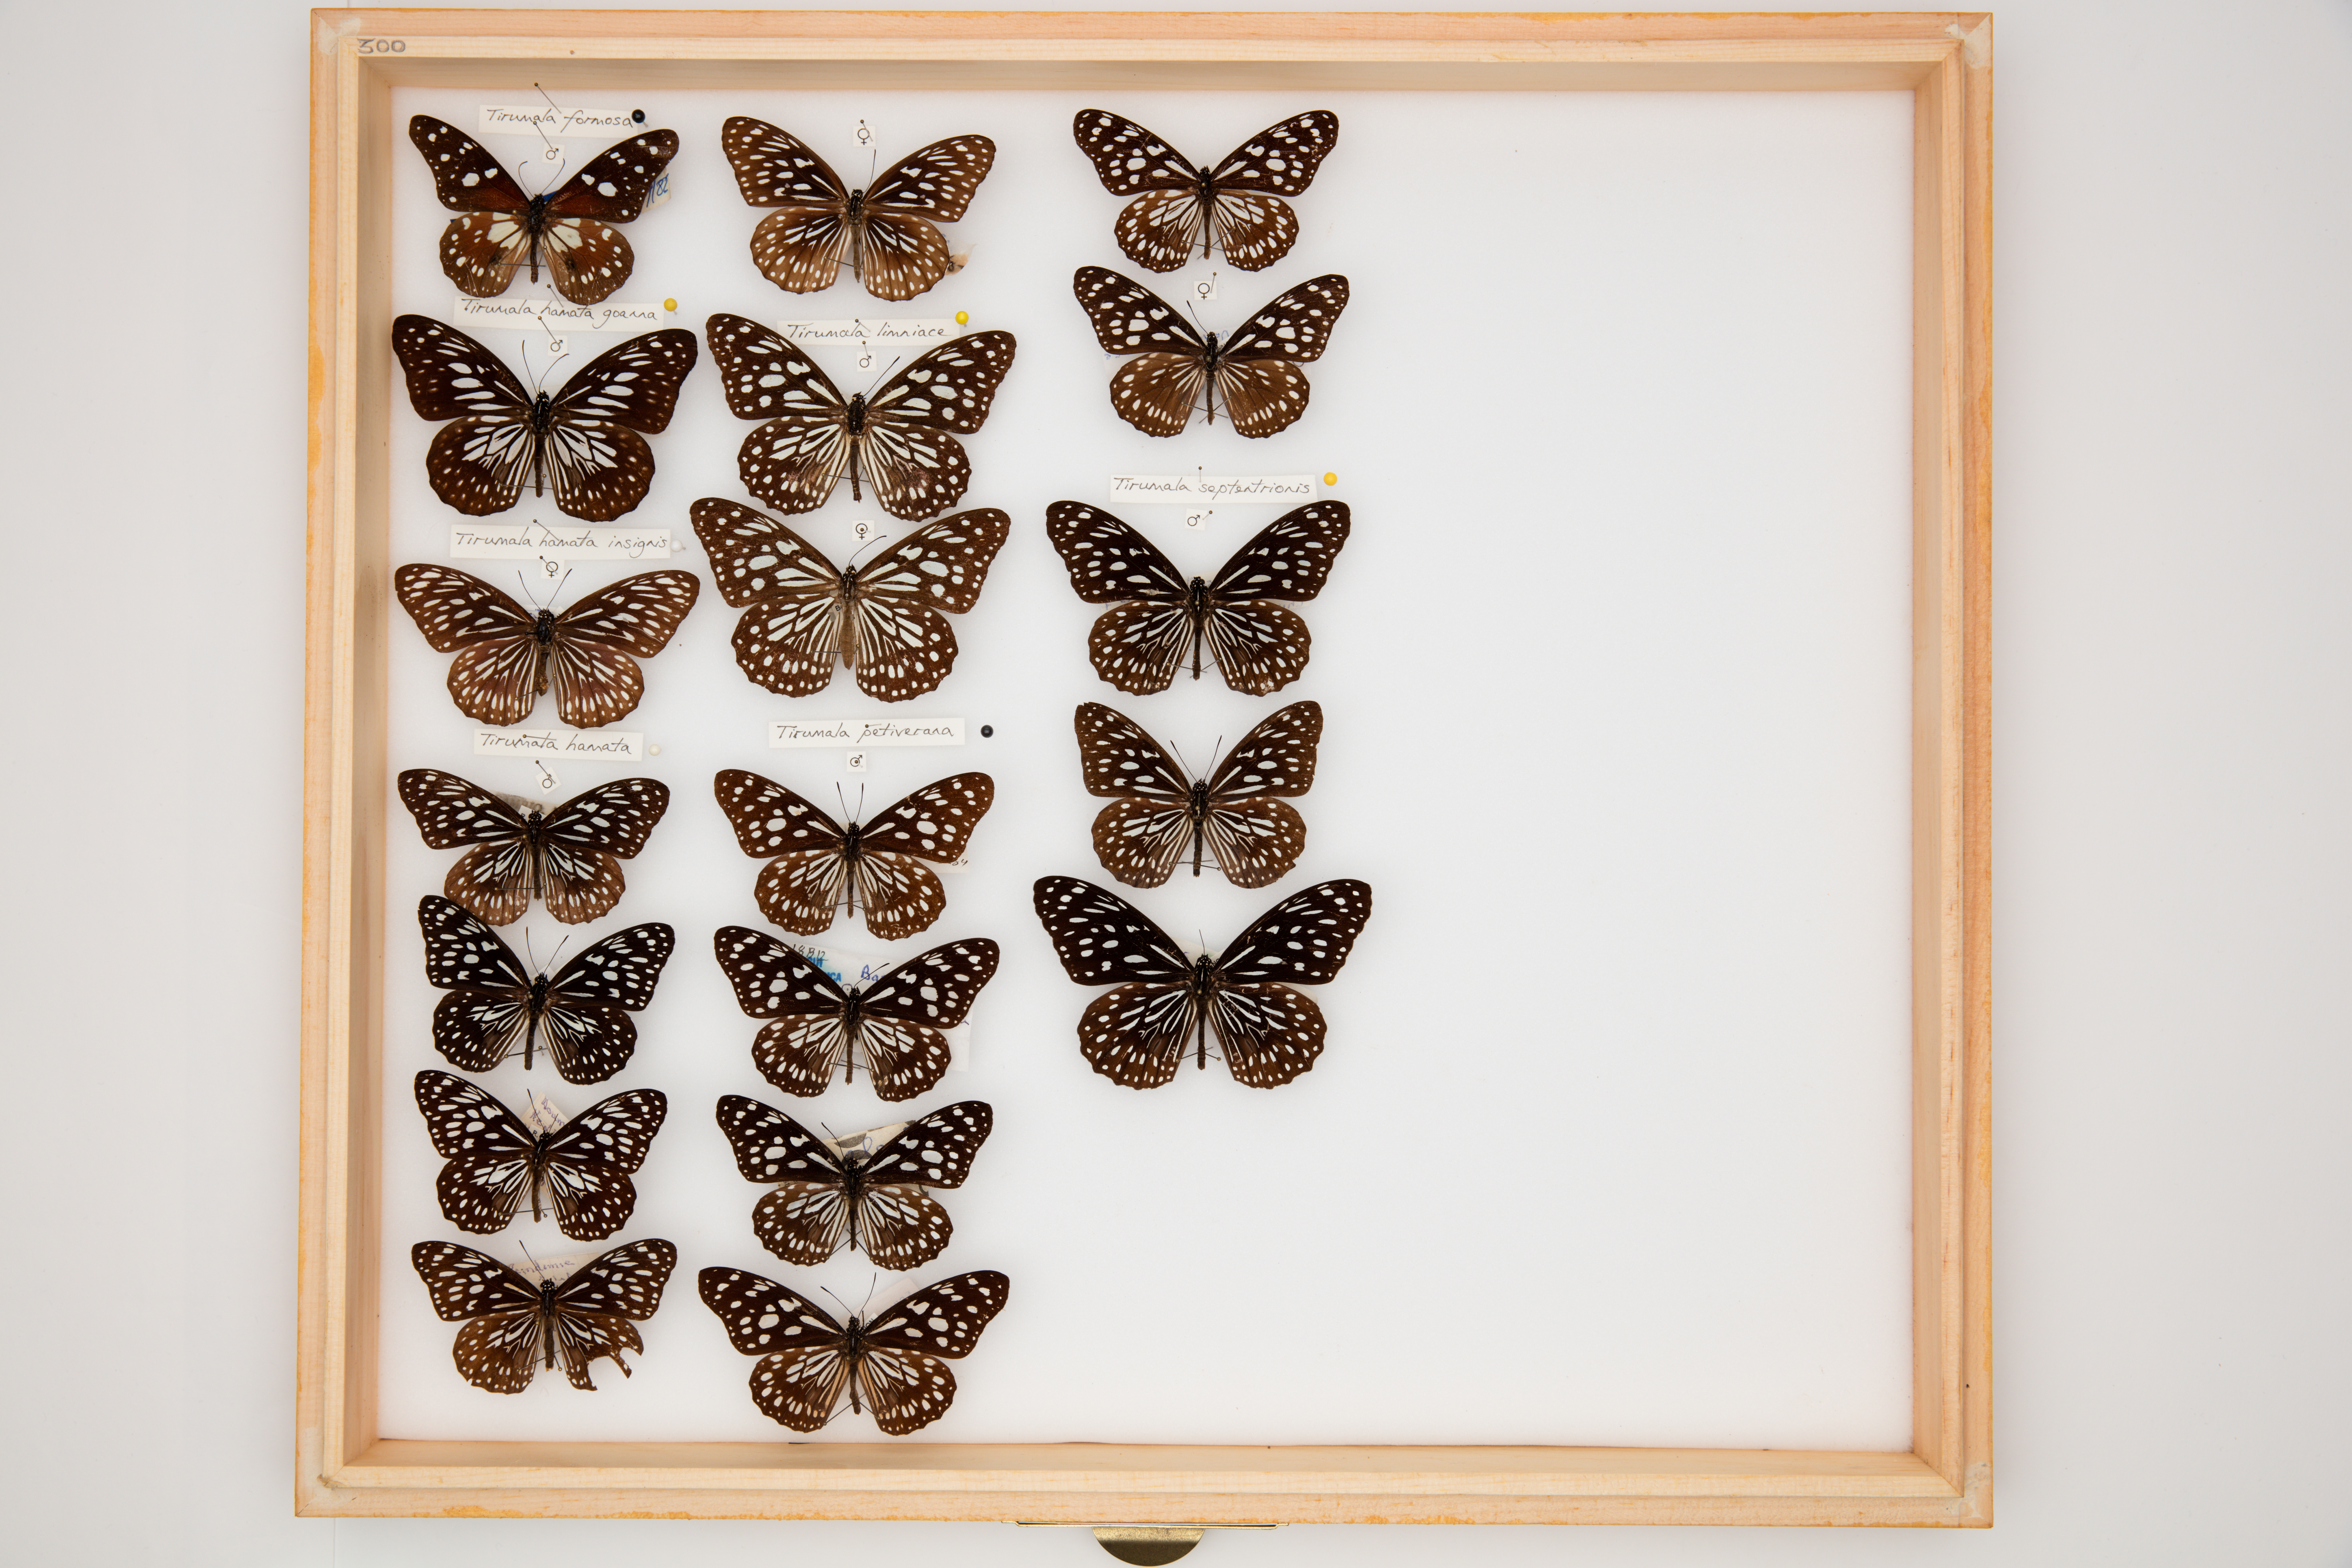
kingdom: Animalia
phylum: Arthropoda
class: Insecta
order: Lepidoptera
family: Nymphalidae
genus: Tirumala
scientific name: Tirumala hamata
